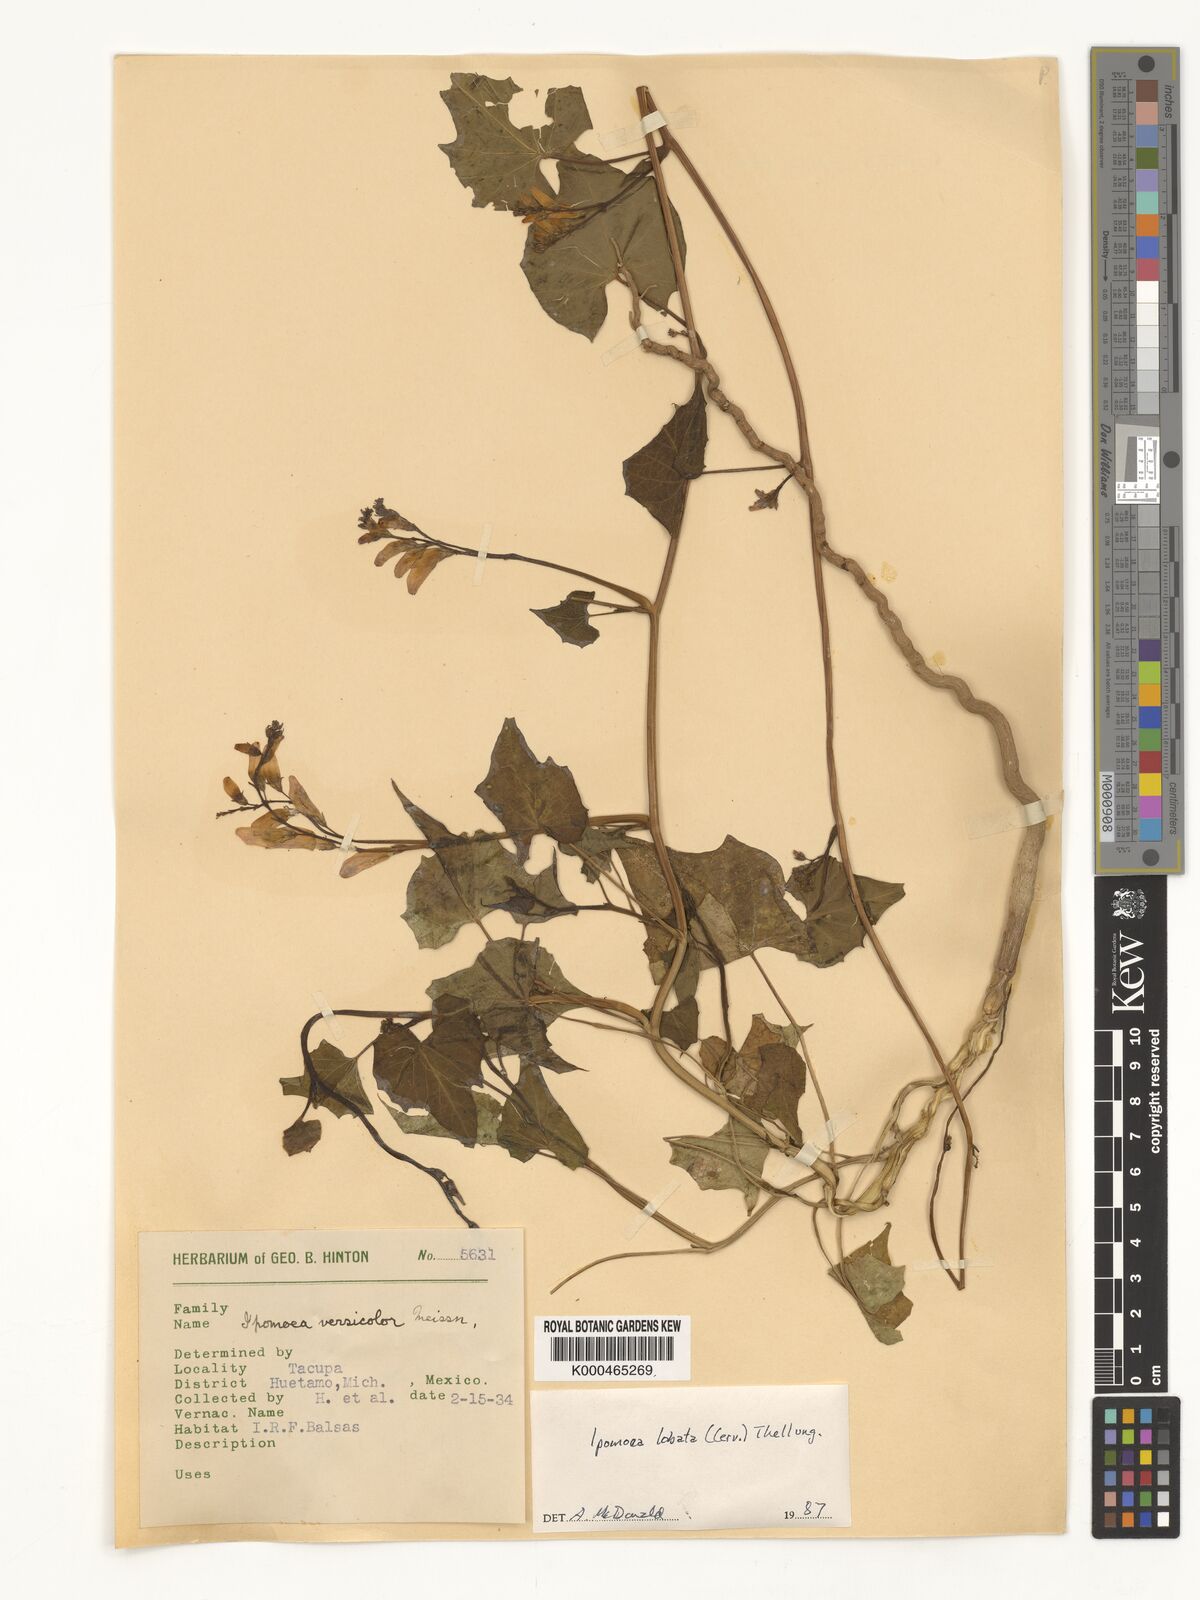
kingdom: Plantae
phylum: Tracheophyta
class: Magnoliopsida
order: Solanales
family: Convolvulaceae
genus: Ipomoea
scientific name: Ipomoea lobata
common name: Spanish-flag
